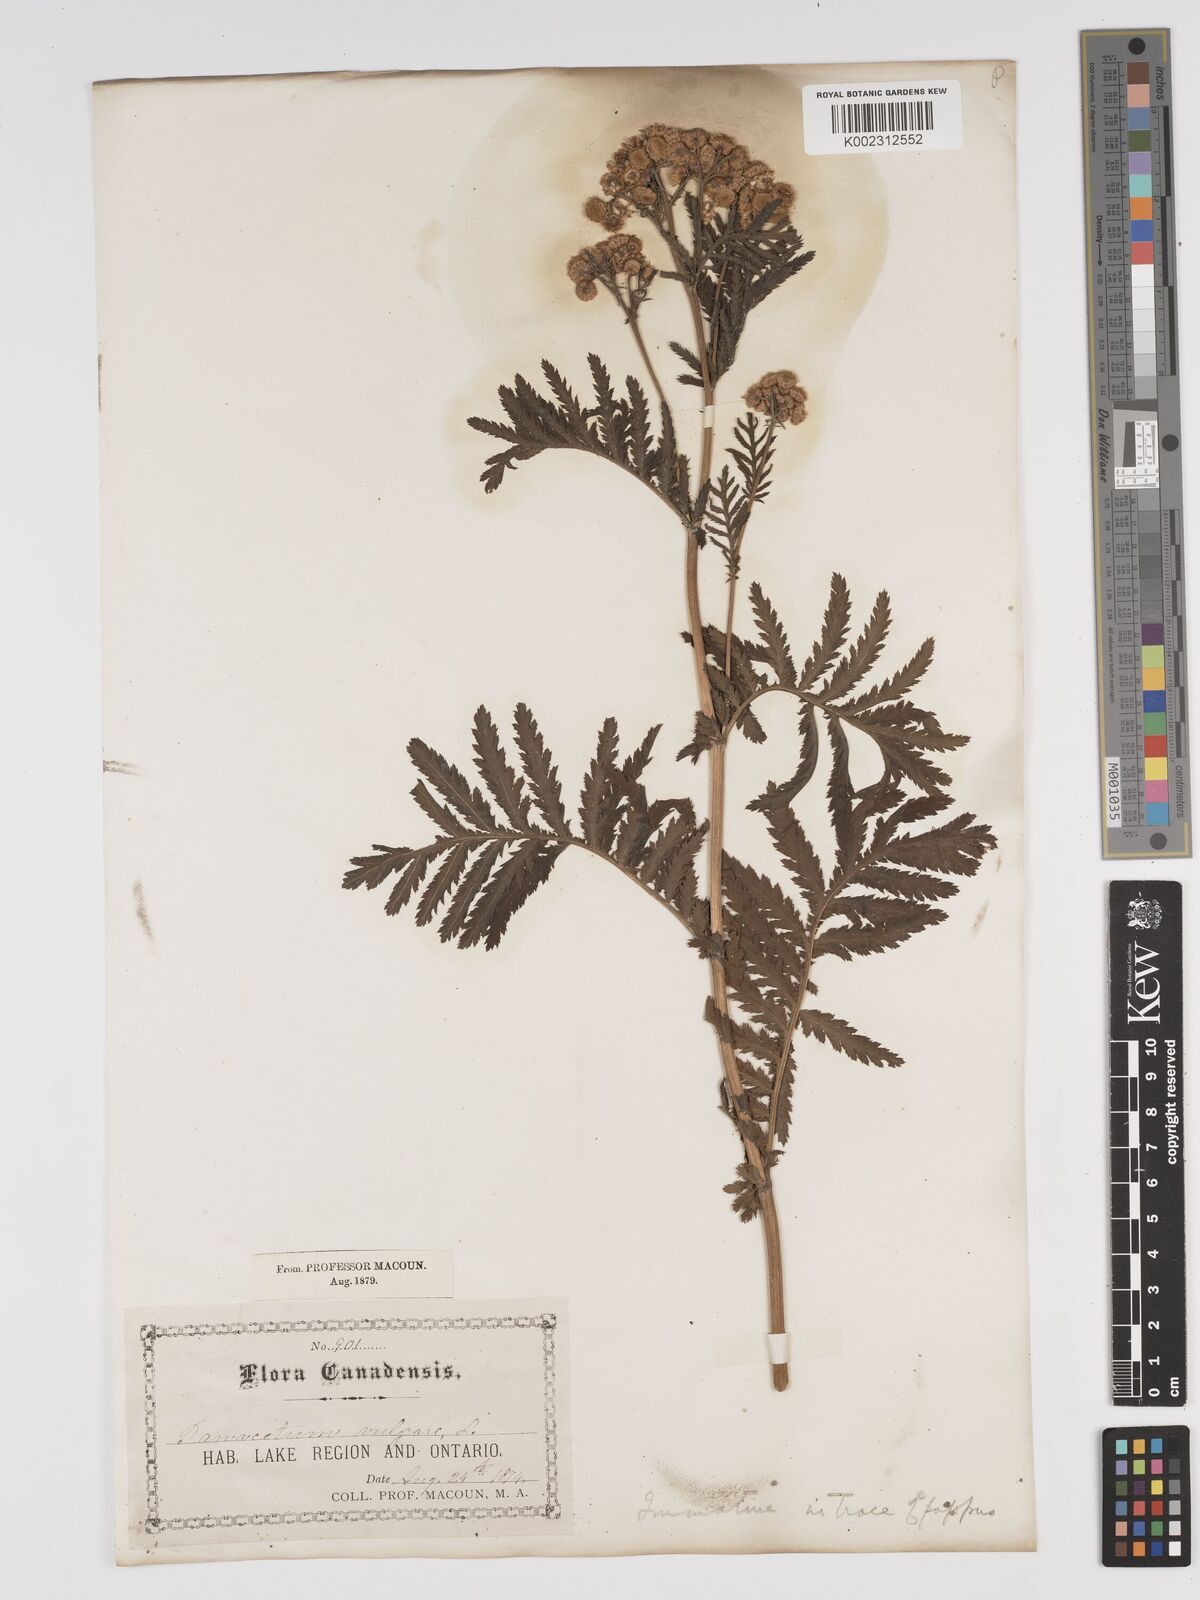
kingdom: Plantae
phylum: Tracheophyta
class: Magnoliopsida
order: Asterales
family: Asteraceae
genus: Tanacetum
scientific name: Tanacetum vulgare
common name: Common tansy
